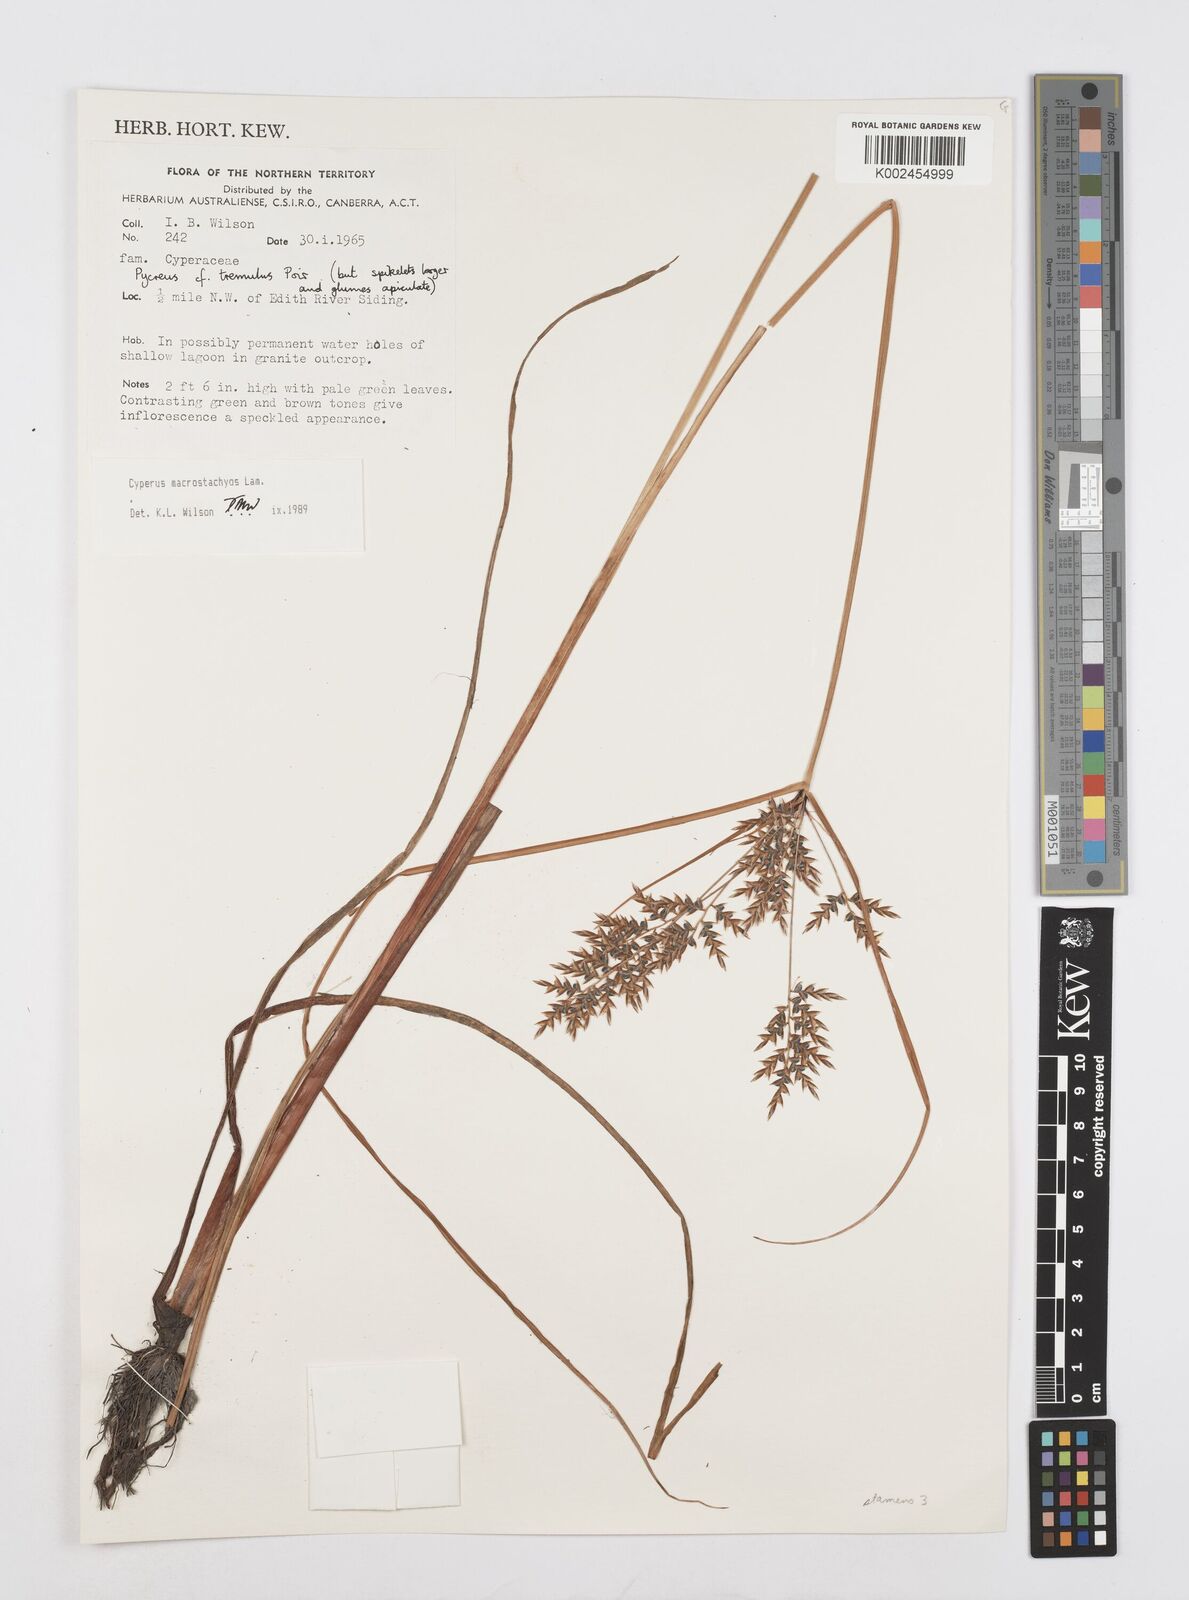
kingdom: Plantae
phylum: Tracheophyta
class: Liliopsida
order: Poales
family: Cyperaceae
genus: Cyperus
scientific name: Cyperus macrostachyos
